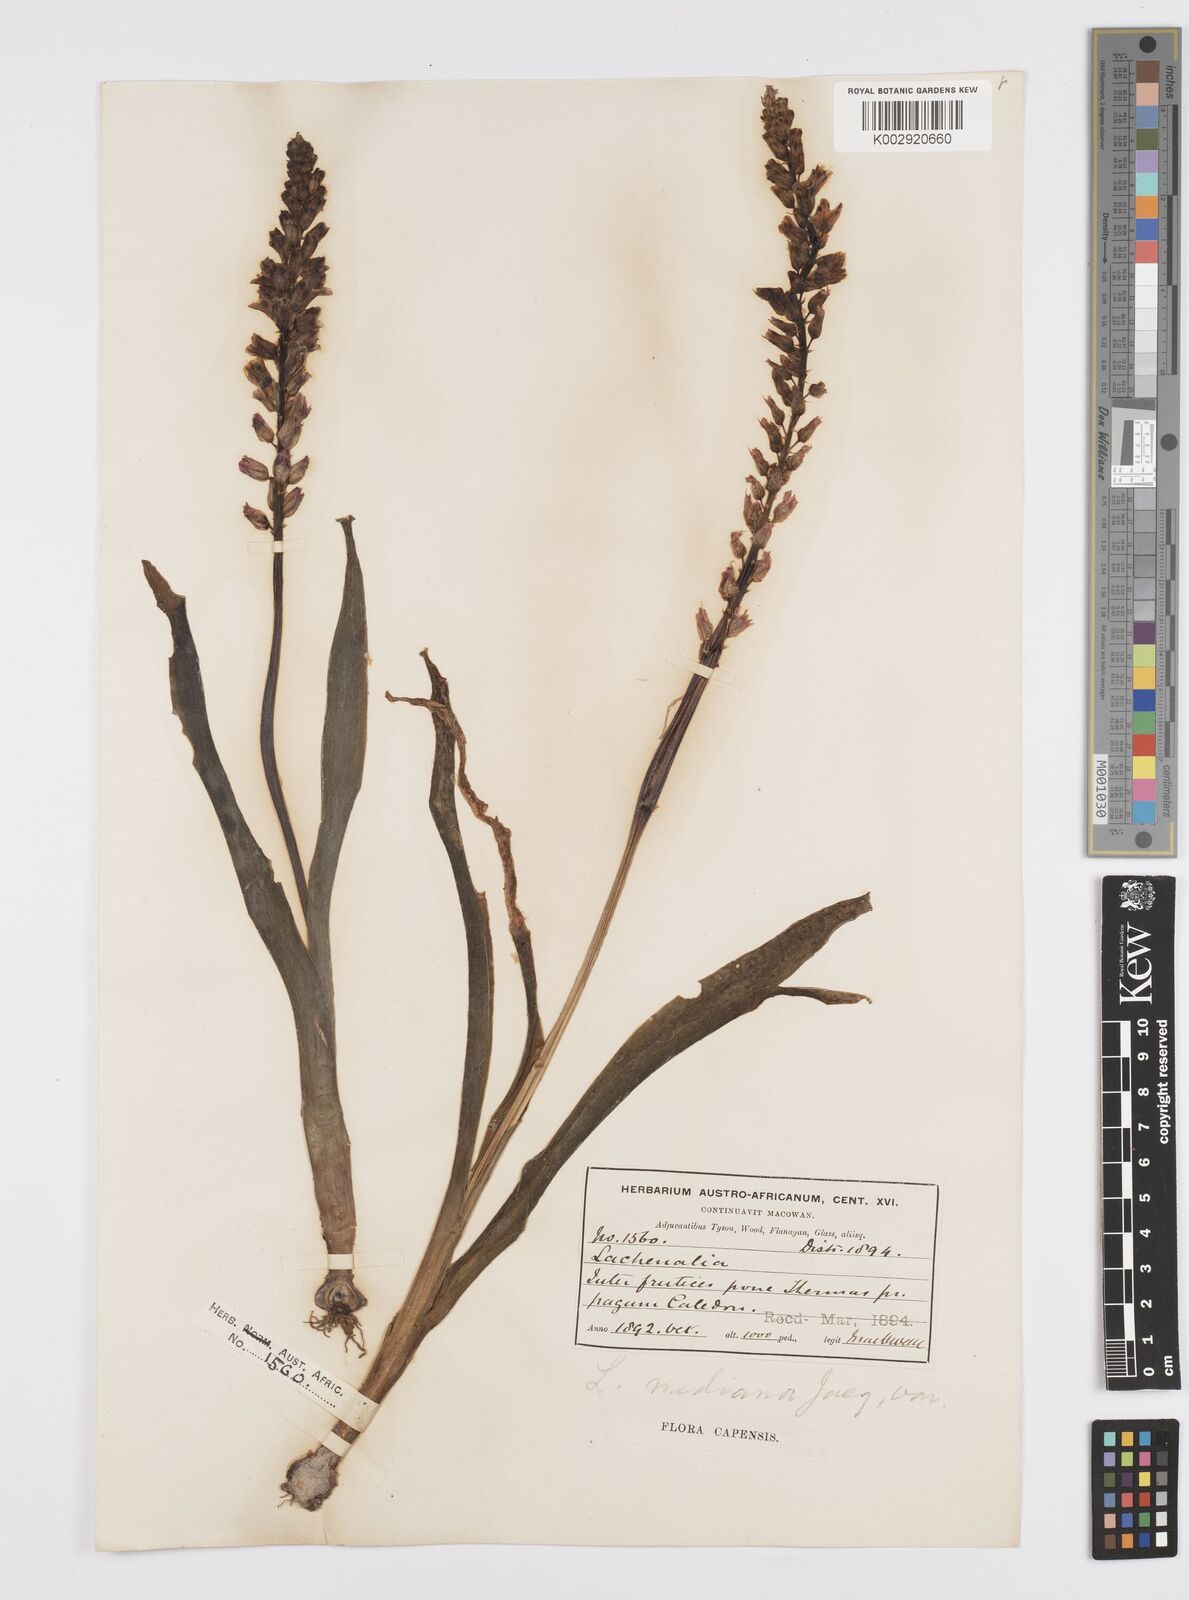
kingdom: Plantae
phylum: Tracheophyta
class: Liliopsida
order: Asparagales
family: Asparagaceae
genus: Lachenalia
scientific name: Lachenalia mediana
